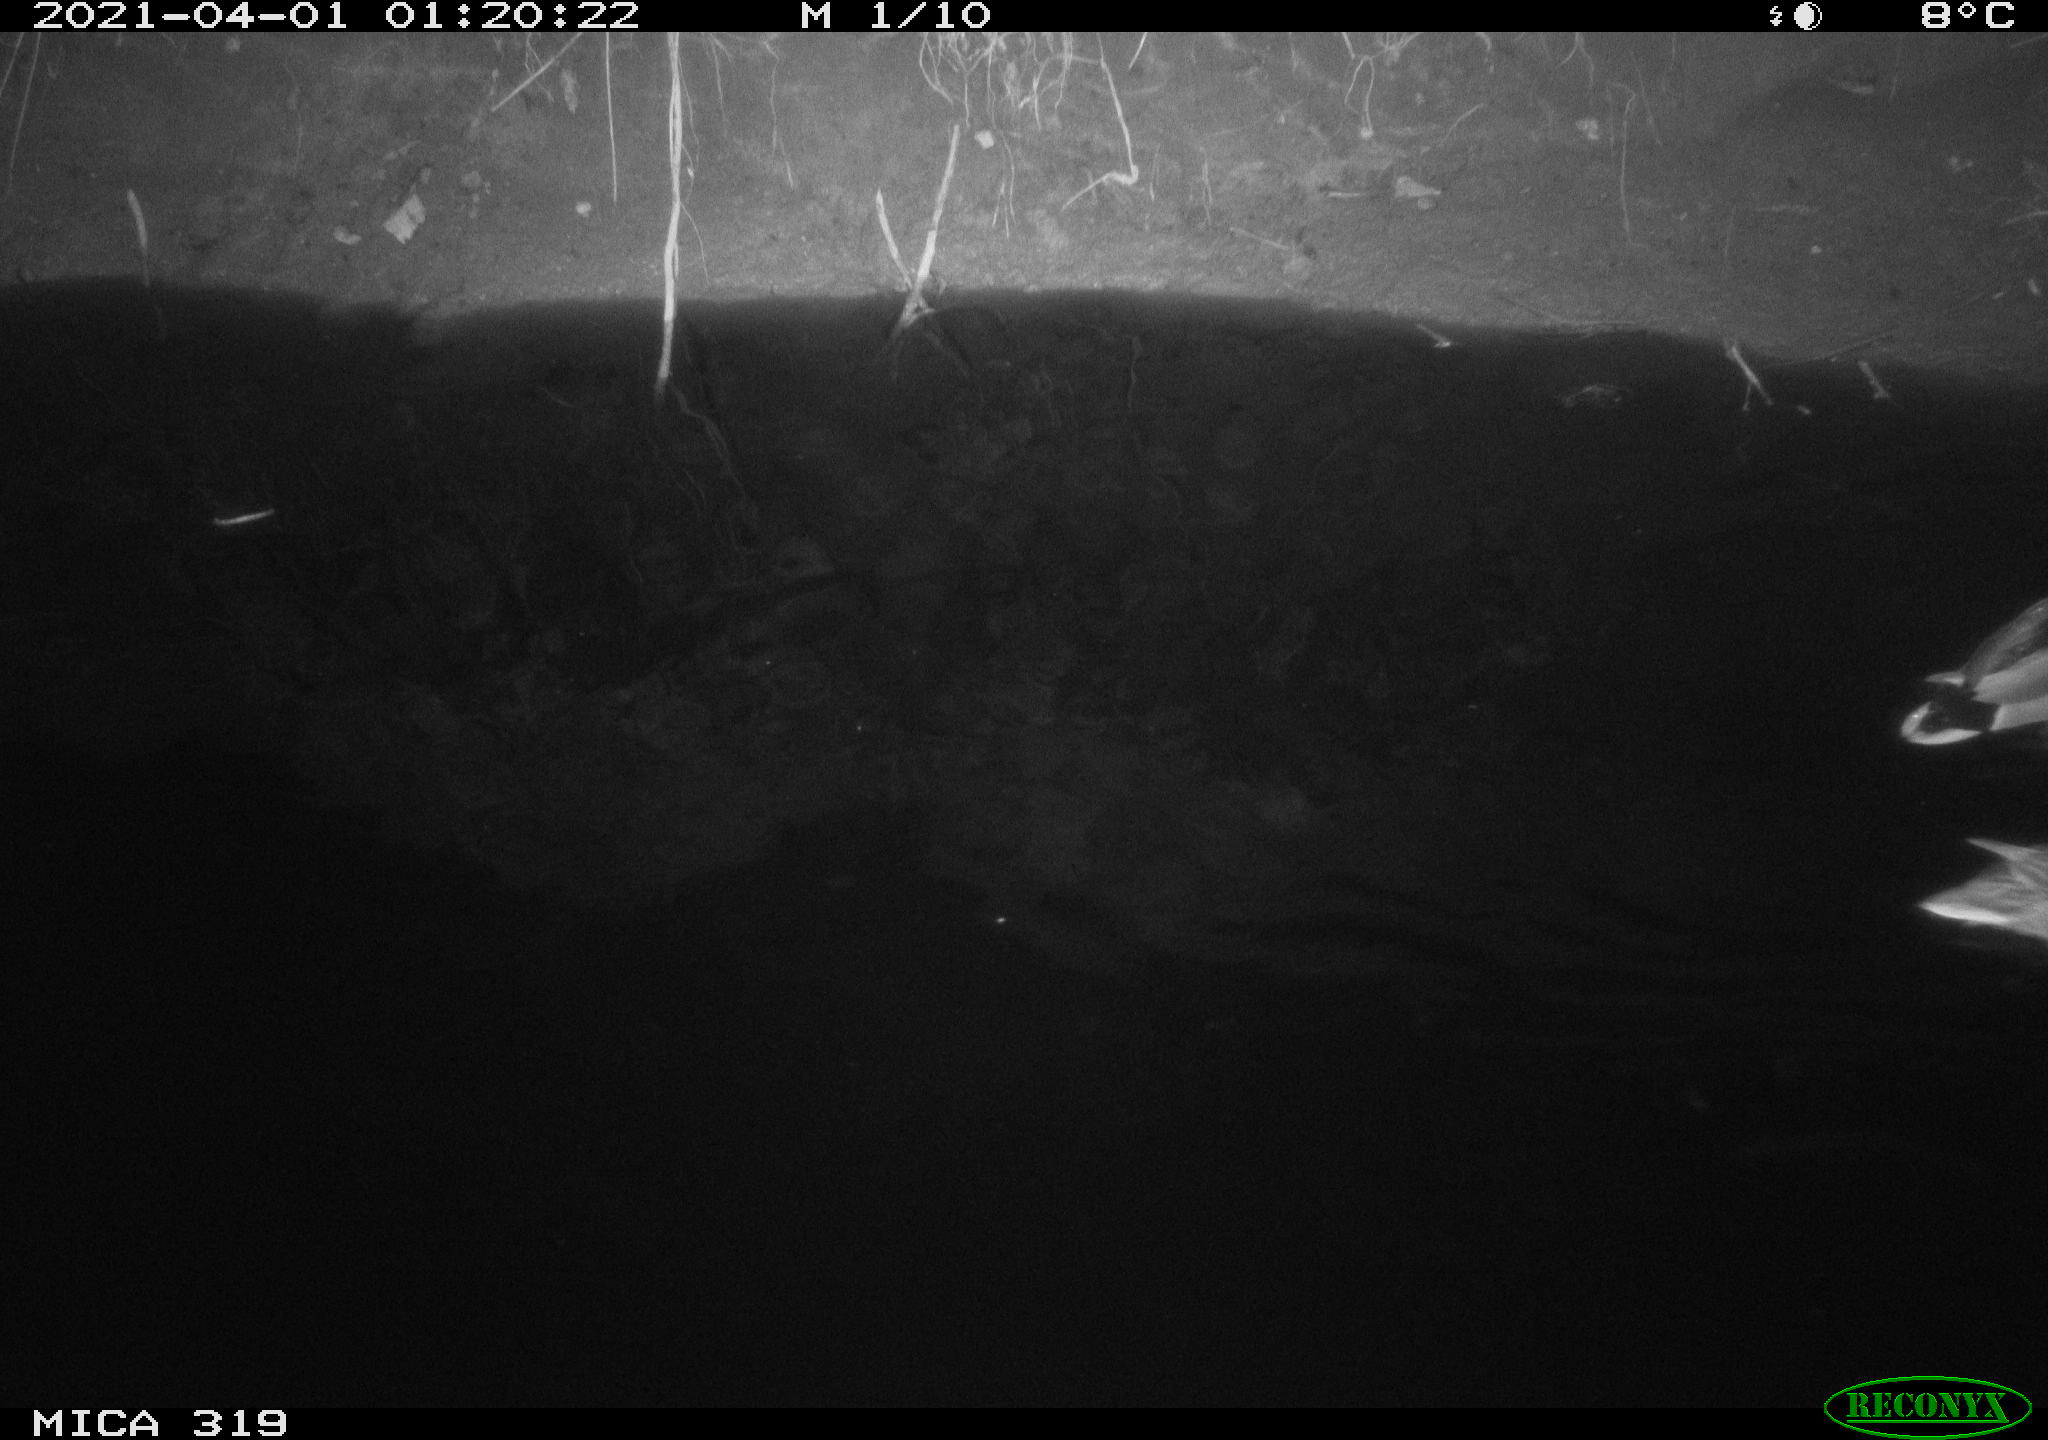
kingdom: Animalia
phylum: Chordata
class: Aves
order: Anseriformes
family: Anatidae
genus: Anas
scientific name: Anas platyrhynchos
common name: Mallard
